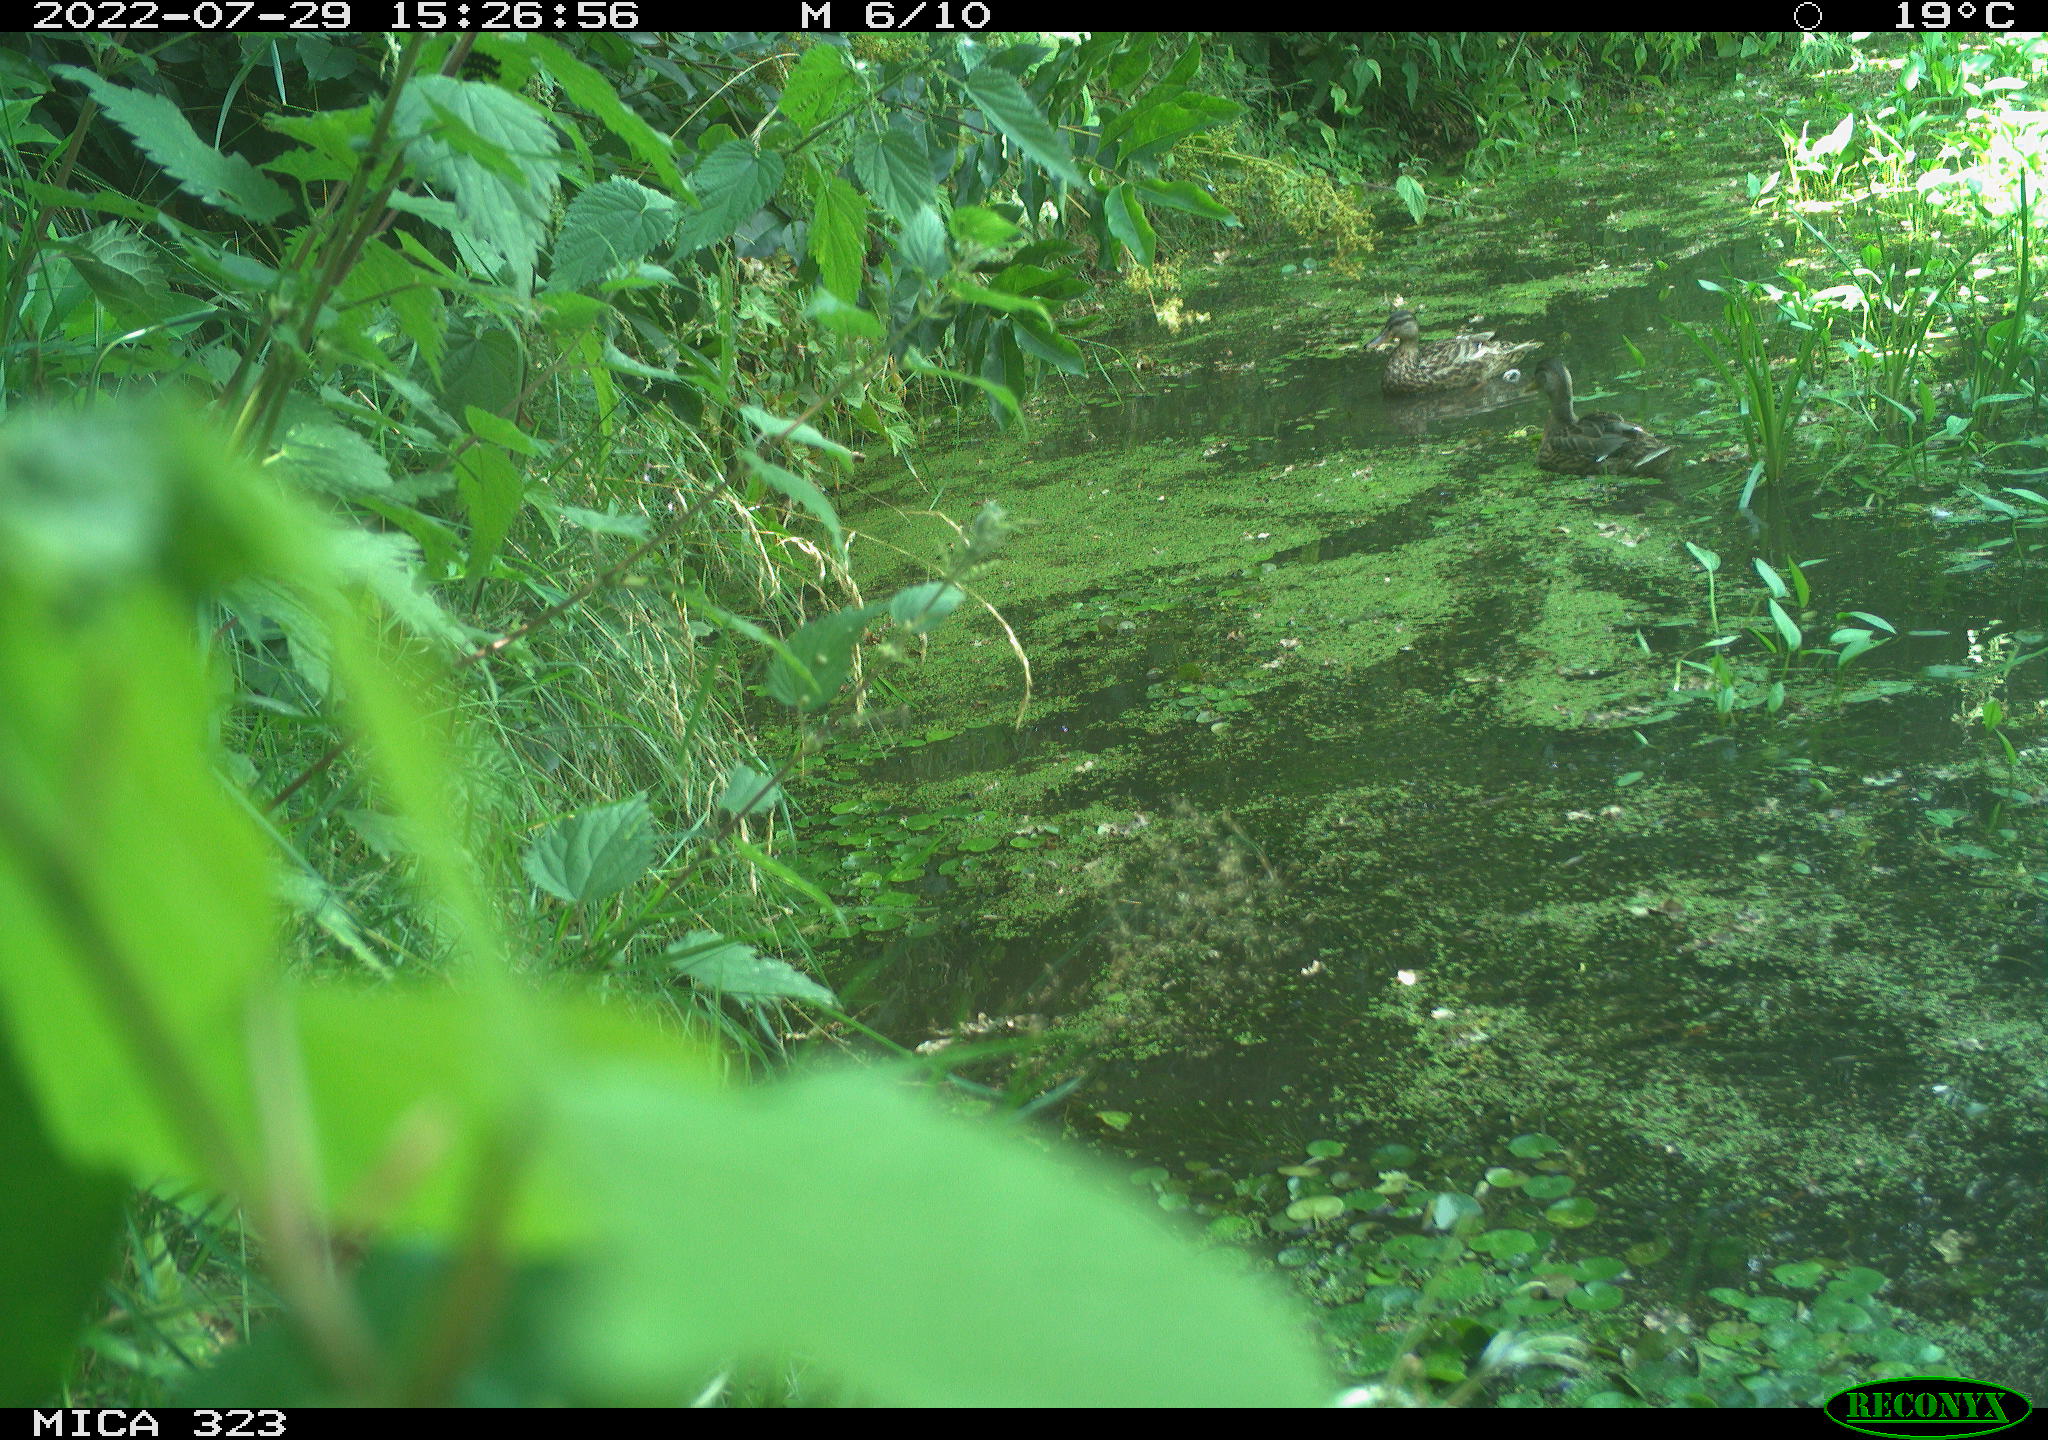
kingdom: Animalia
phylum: Chordata
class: Aves
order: Anseriformes
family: Anatidae
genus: Anas
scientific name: Anas platyrhynchos
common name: Mallard
